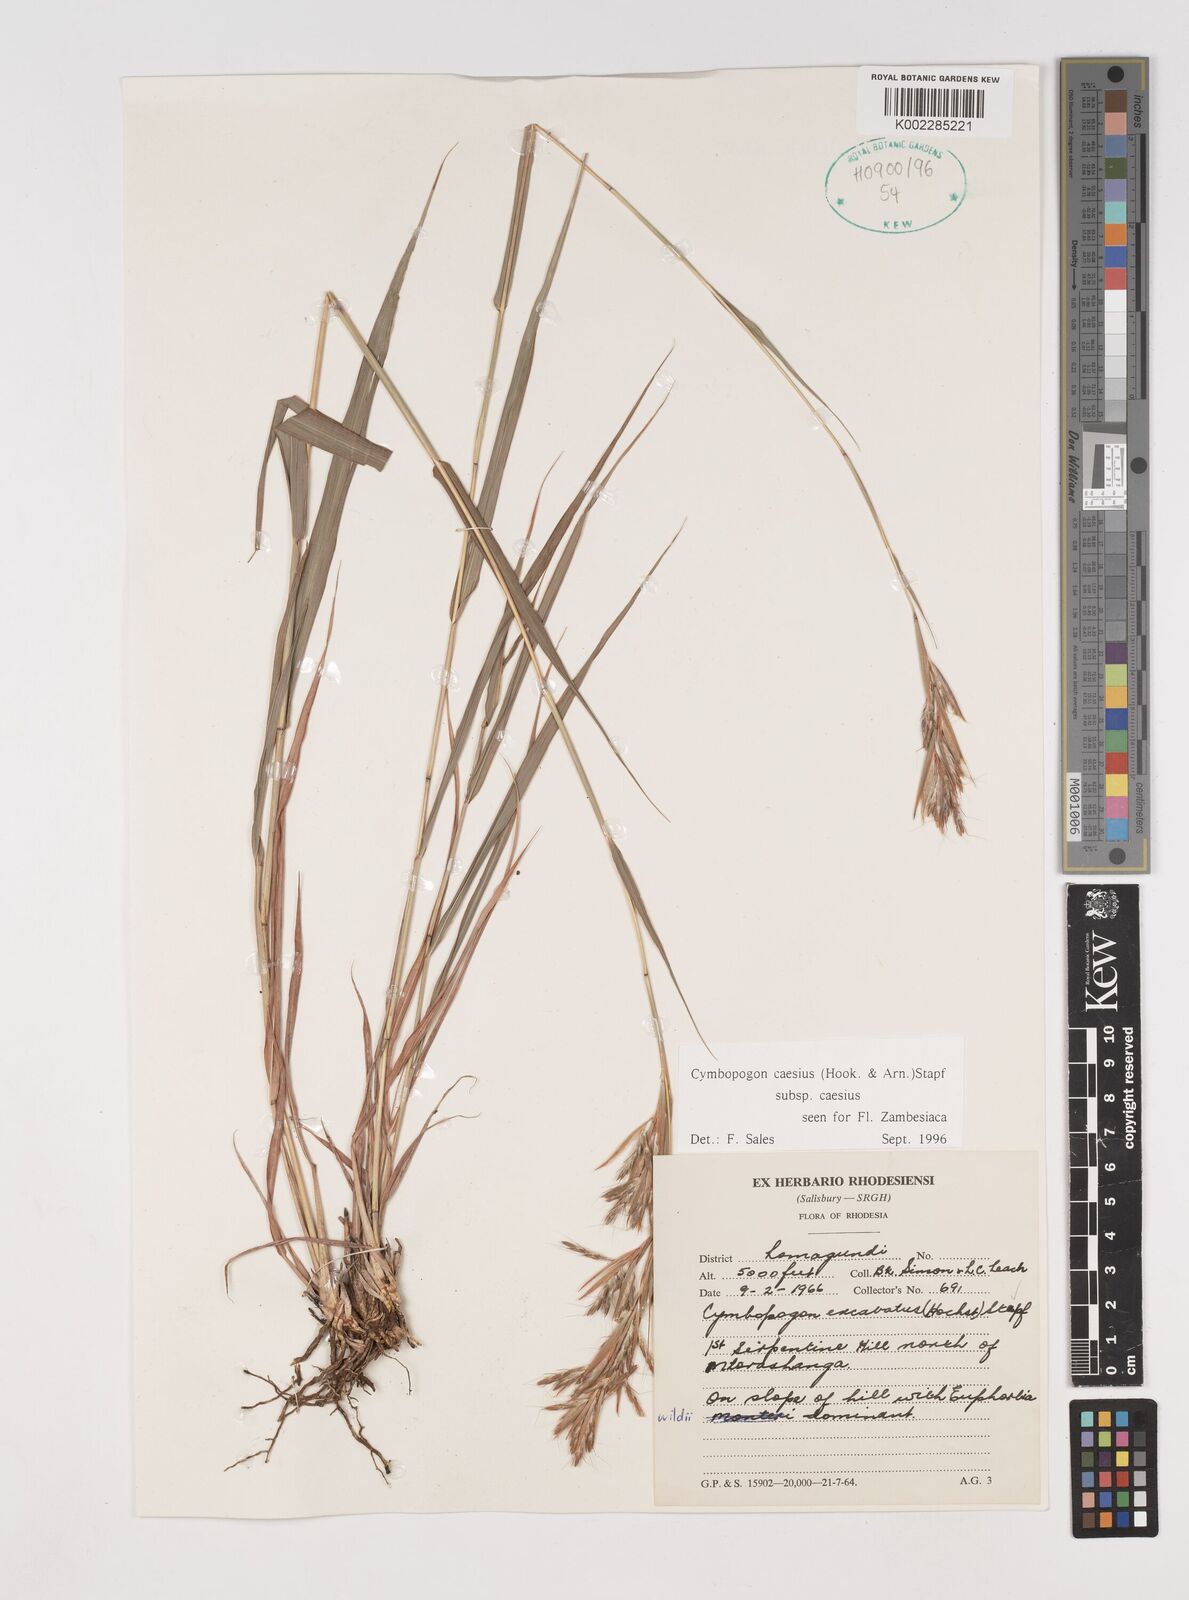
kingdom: Plantae
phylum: Tracheophyta
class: Liliopsida
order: Poales
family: Poaceae
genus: Cymbopogon
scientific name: Cymbopogon caesius
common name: Kachi grass
